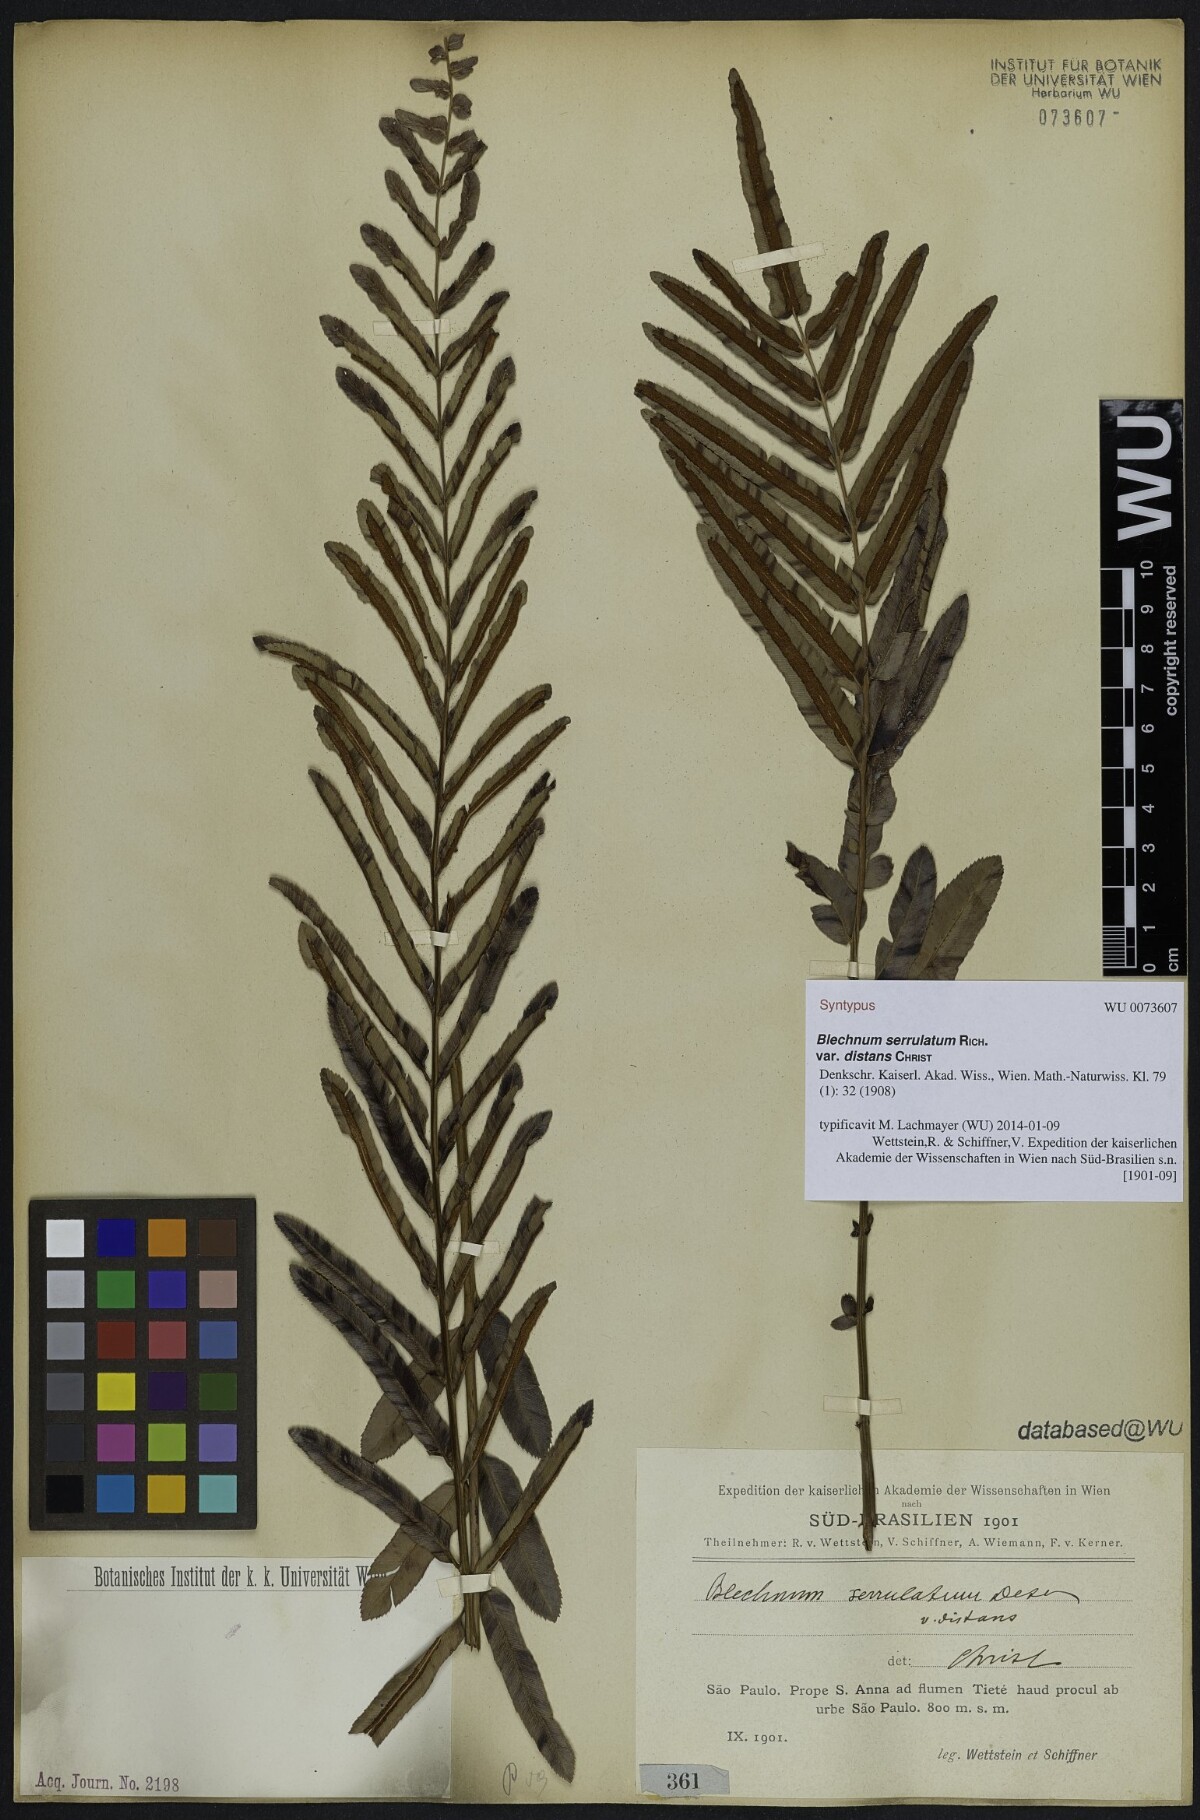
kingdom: Plantae
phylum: Tracheophyta
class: Polypodiopsida
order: Polypodiales
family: Blechnaceae
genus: Telmatoblechnum
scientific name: Telmatoblechnum serrulatum
